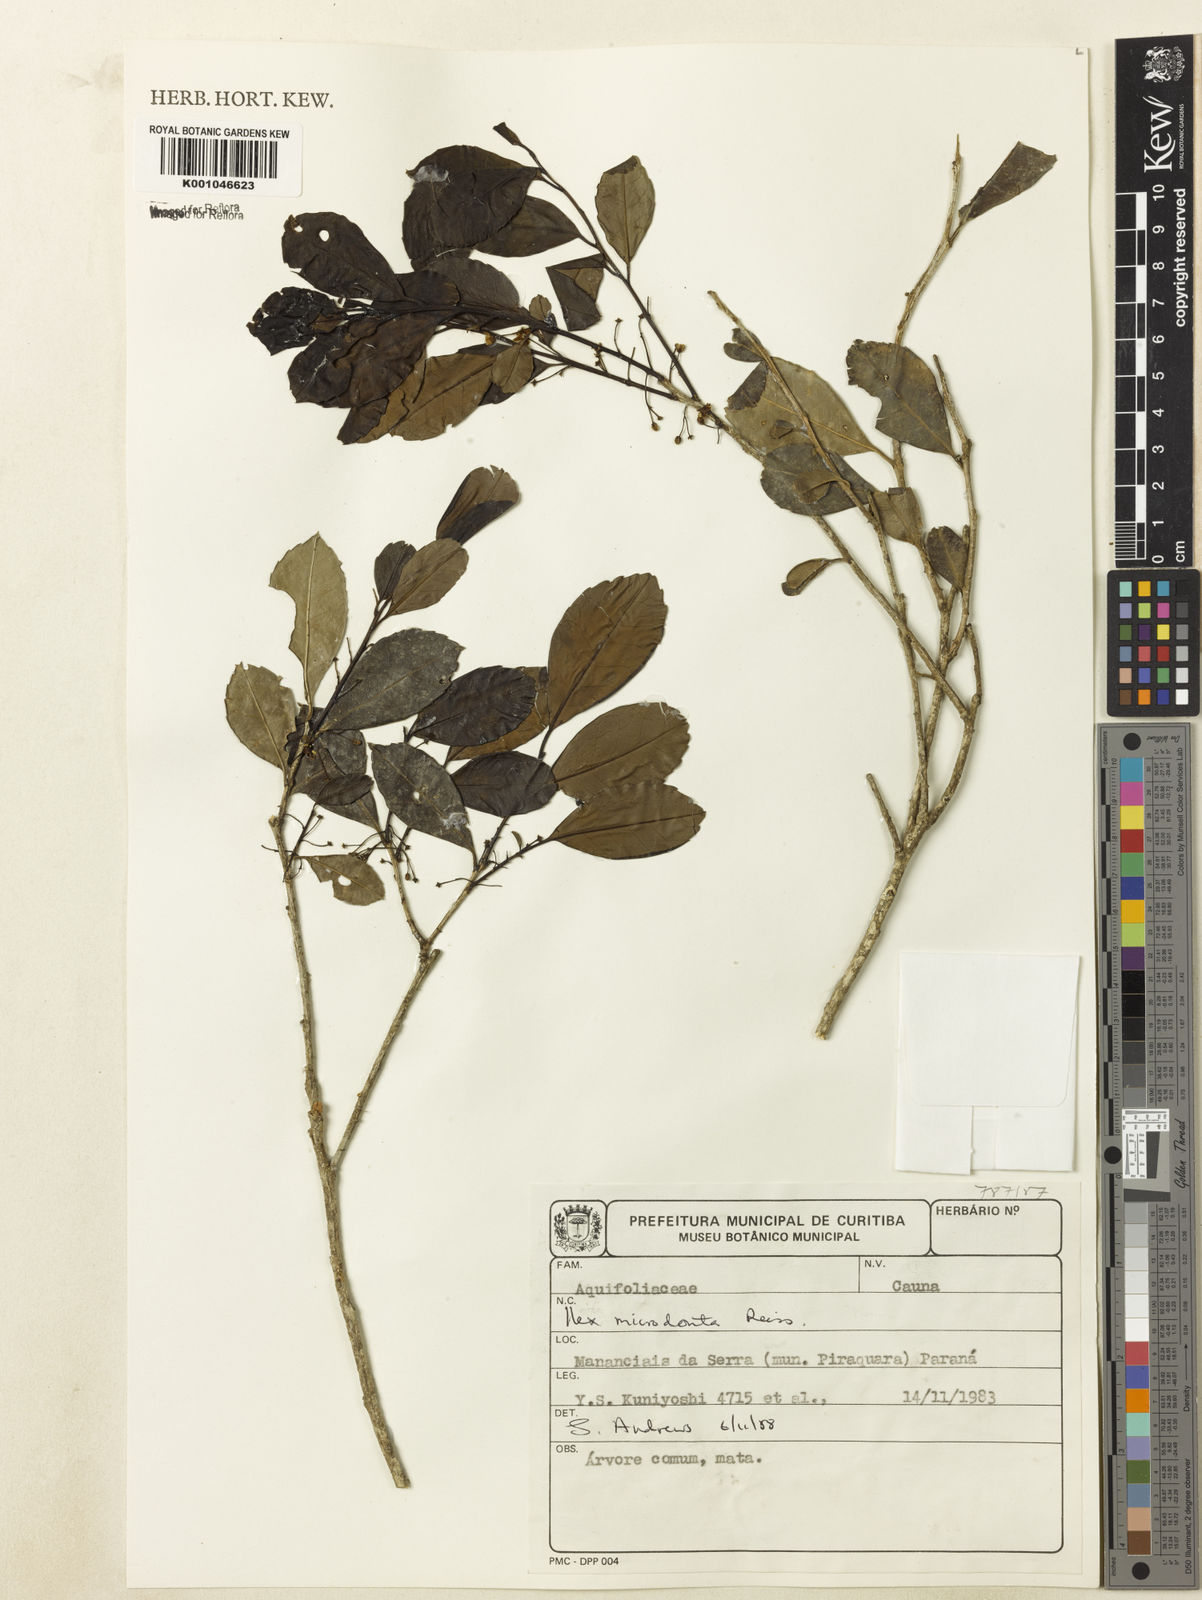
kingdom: Plantae
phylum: Tracheophyta
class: Magnoliopsida
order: Aquifoliales
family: Aquifoliaceae
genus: Ilex
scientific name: Ilex microdonta
